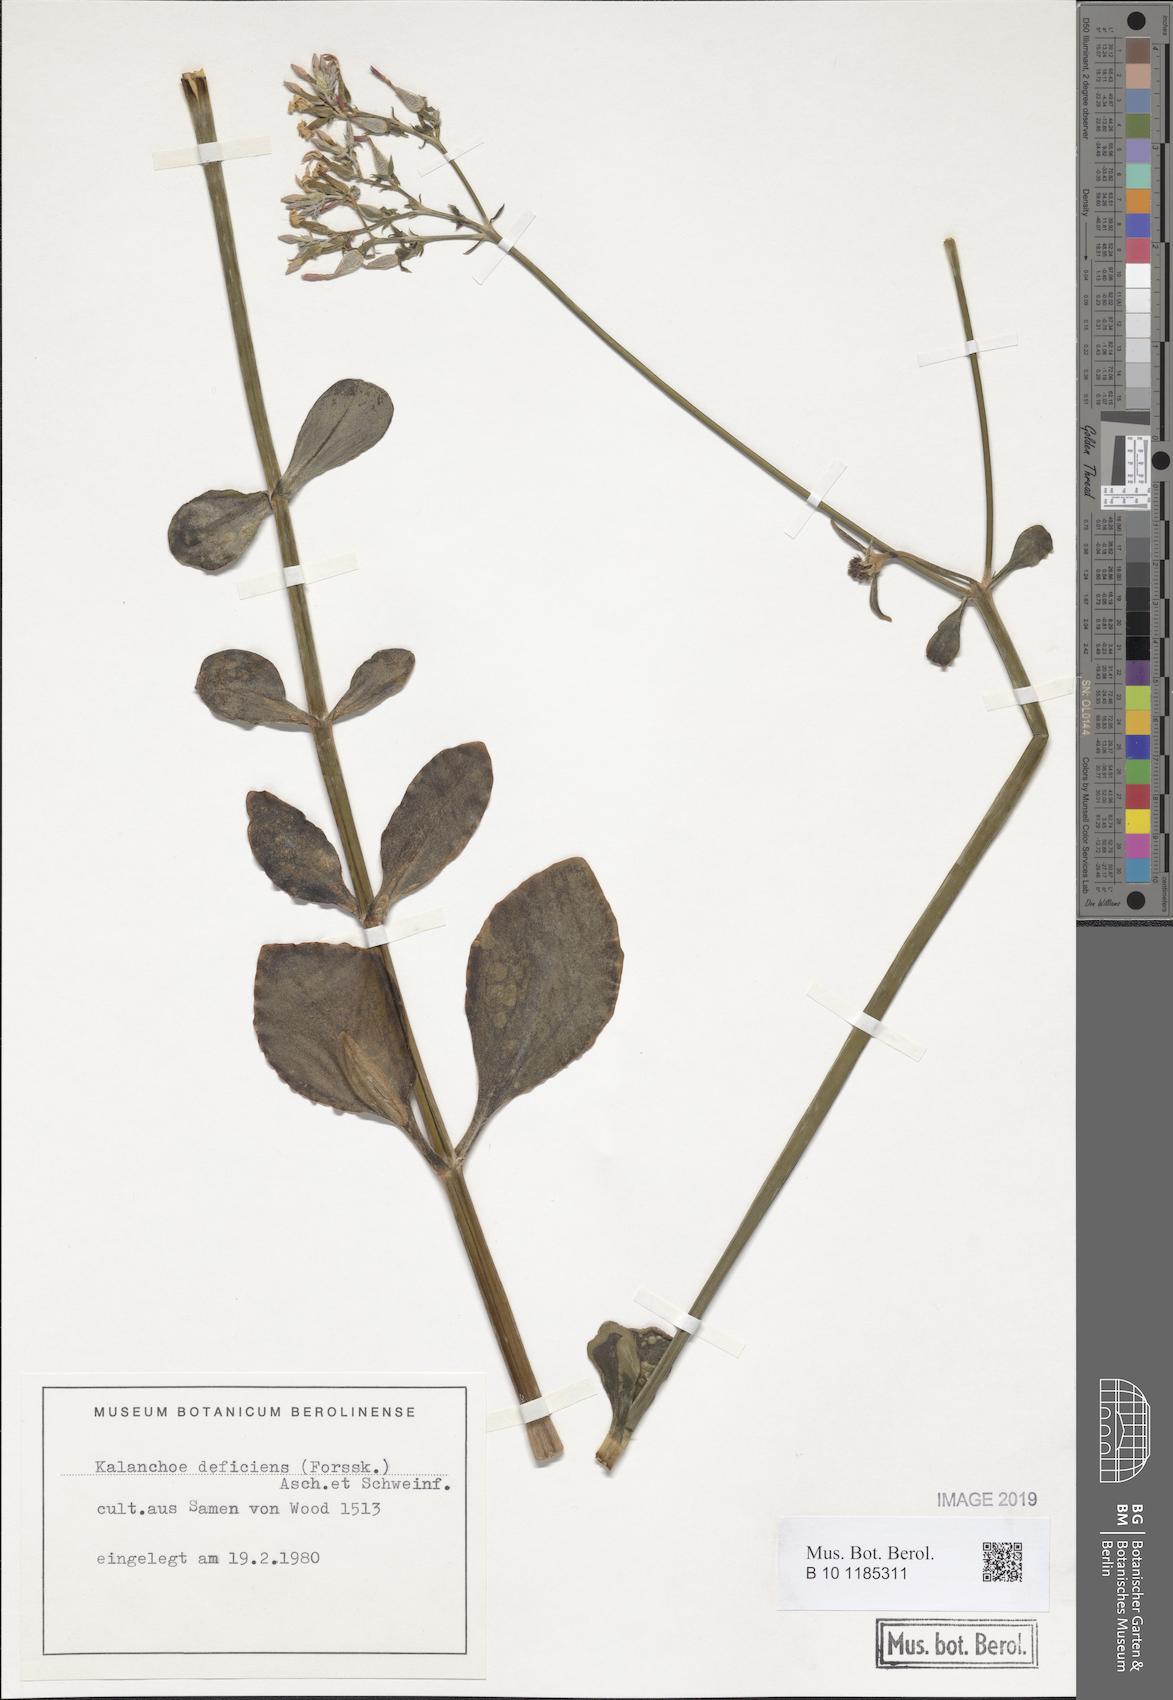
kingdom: Plantae
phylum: Tracheophyta
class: Magnoliopsida
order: Saxifragales
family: Crassulaceae
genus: Kalanchoe
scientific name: Kalanchoe deficiens
